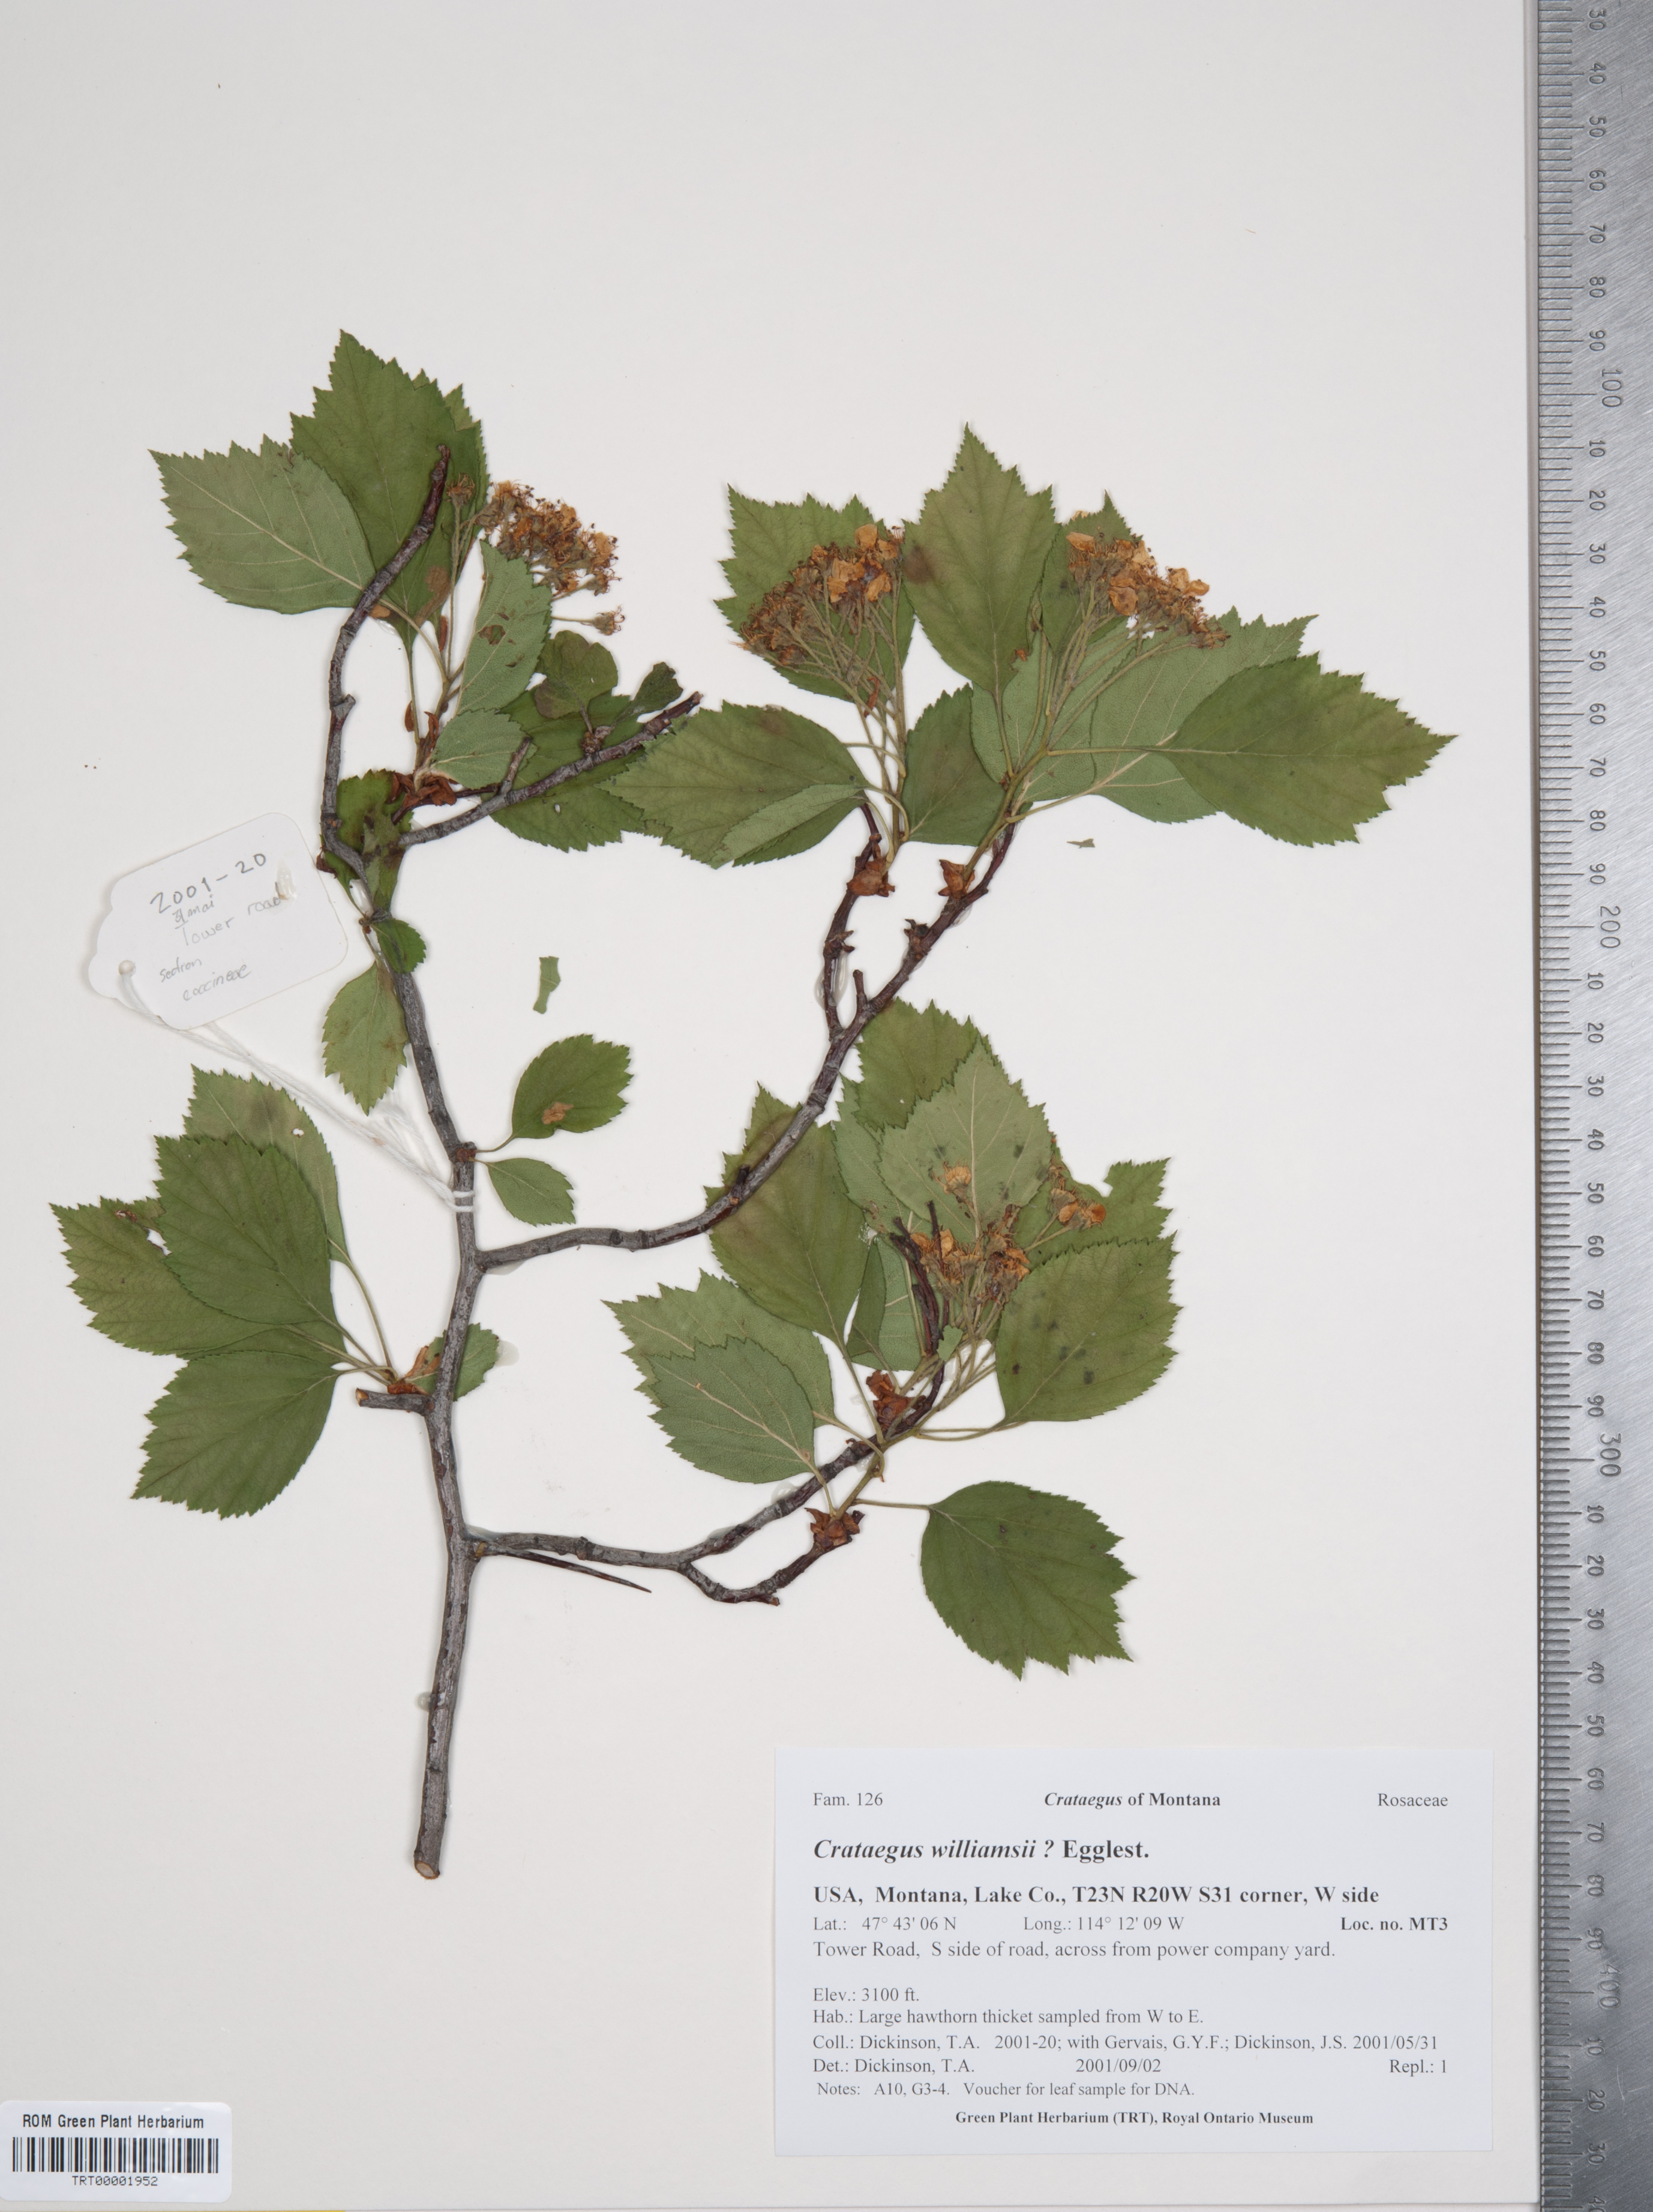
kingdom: Plantae
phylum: Tracheophyta
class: Magnoliopsida
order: Rosales
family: Rosaceae
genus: Crataegus
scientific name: Crataegus williamsii
